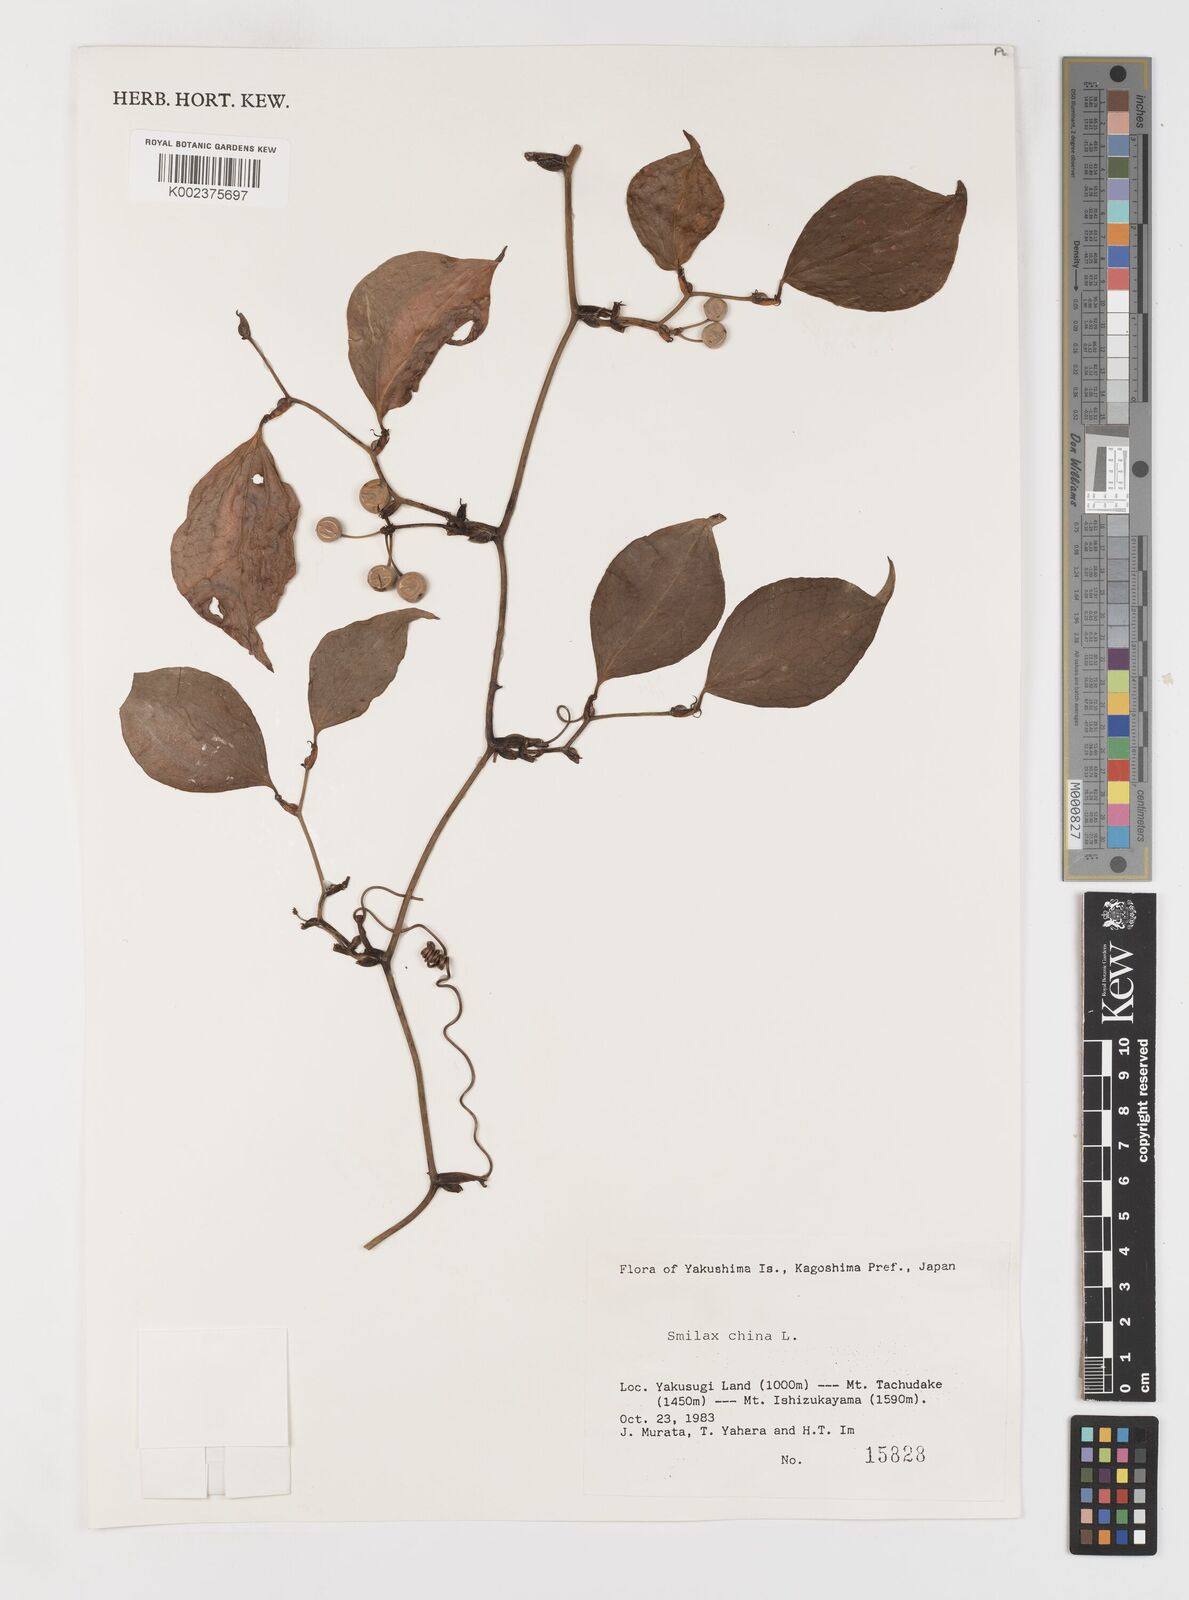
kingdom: Plantae
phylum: Tracheophyta
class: Liliopsida
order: Liliales
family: Smilacaceae
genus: Smilax
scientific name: Smilax china
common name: Chinaroot
